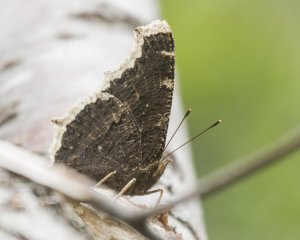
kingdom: Animalia
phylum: Arthropoda
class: Insecta
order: Lepidoptera
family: Nymphalidae
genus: Nymphalis
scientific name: Nymphalis antiopa
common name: Mourning Cloak
